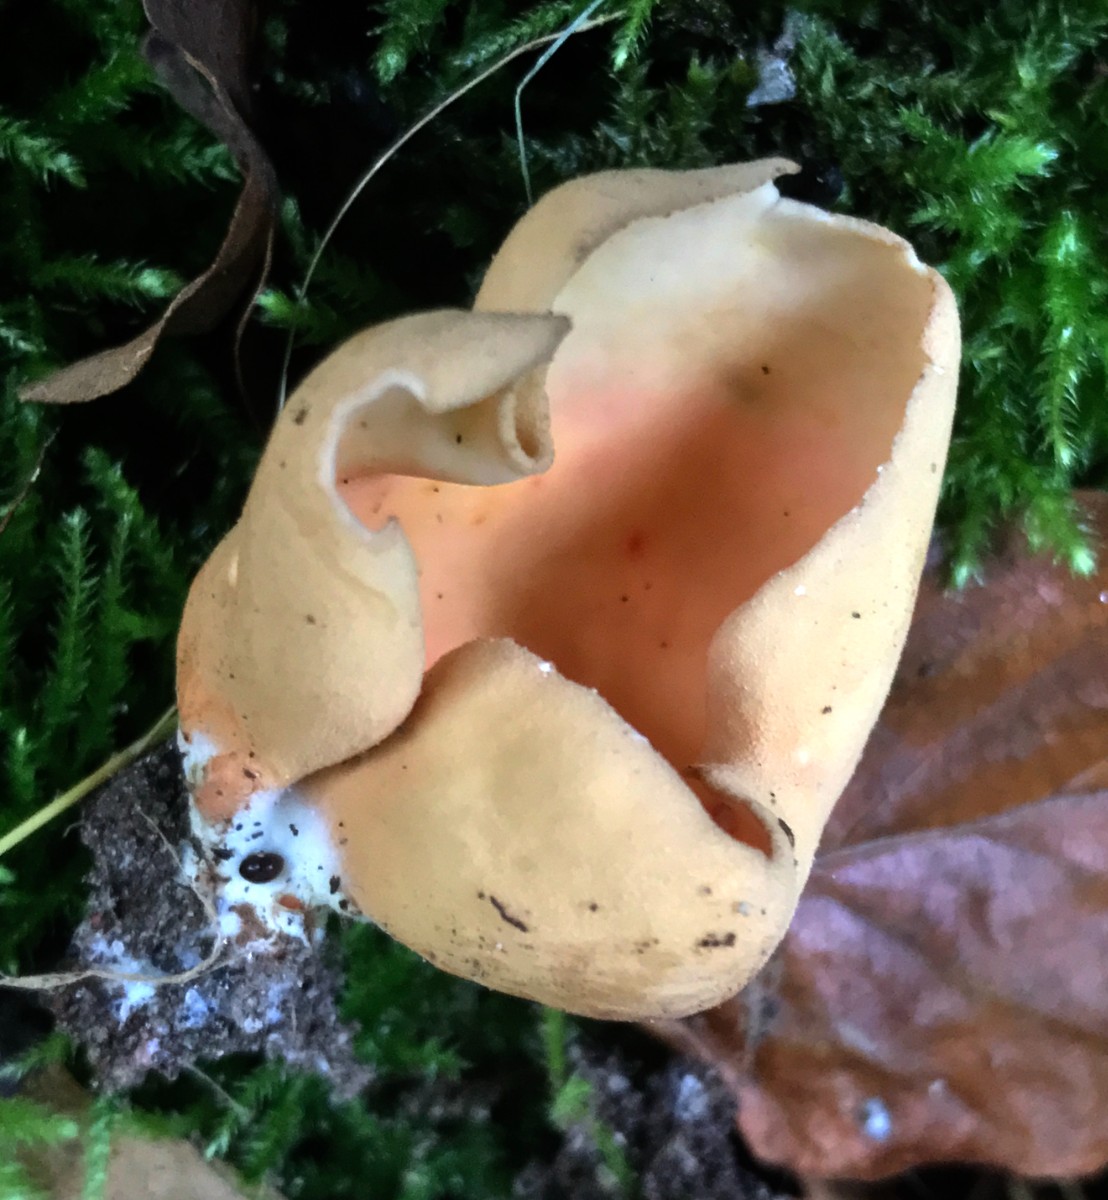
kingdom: Fungi
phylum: Ascomycota
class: Pezizomycetes
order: Pezizales
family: Otideaceae
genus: Otidea
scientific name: Otidea onotica
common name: æsel-ørebæger
